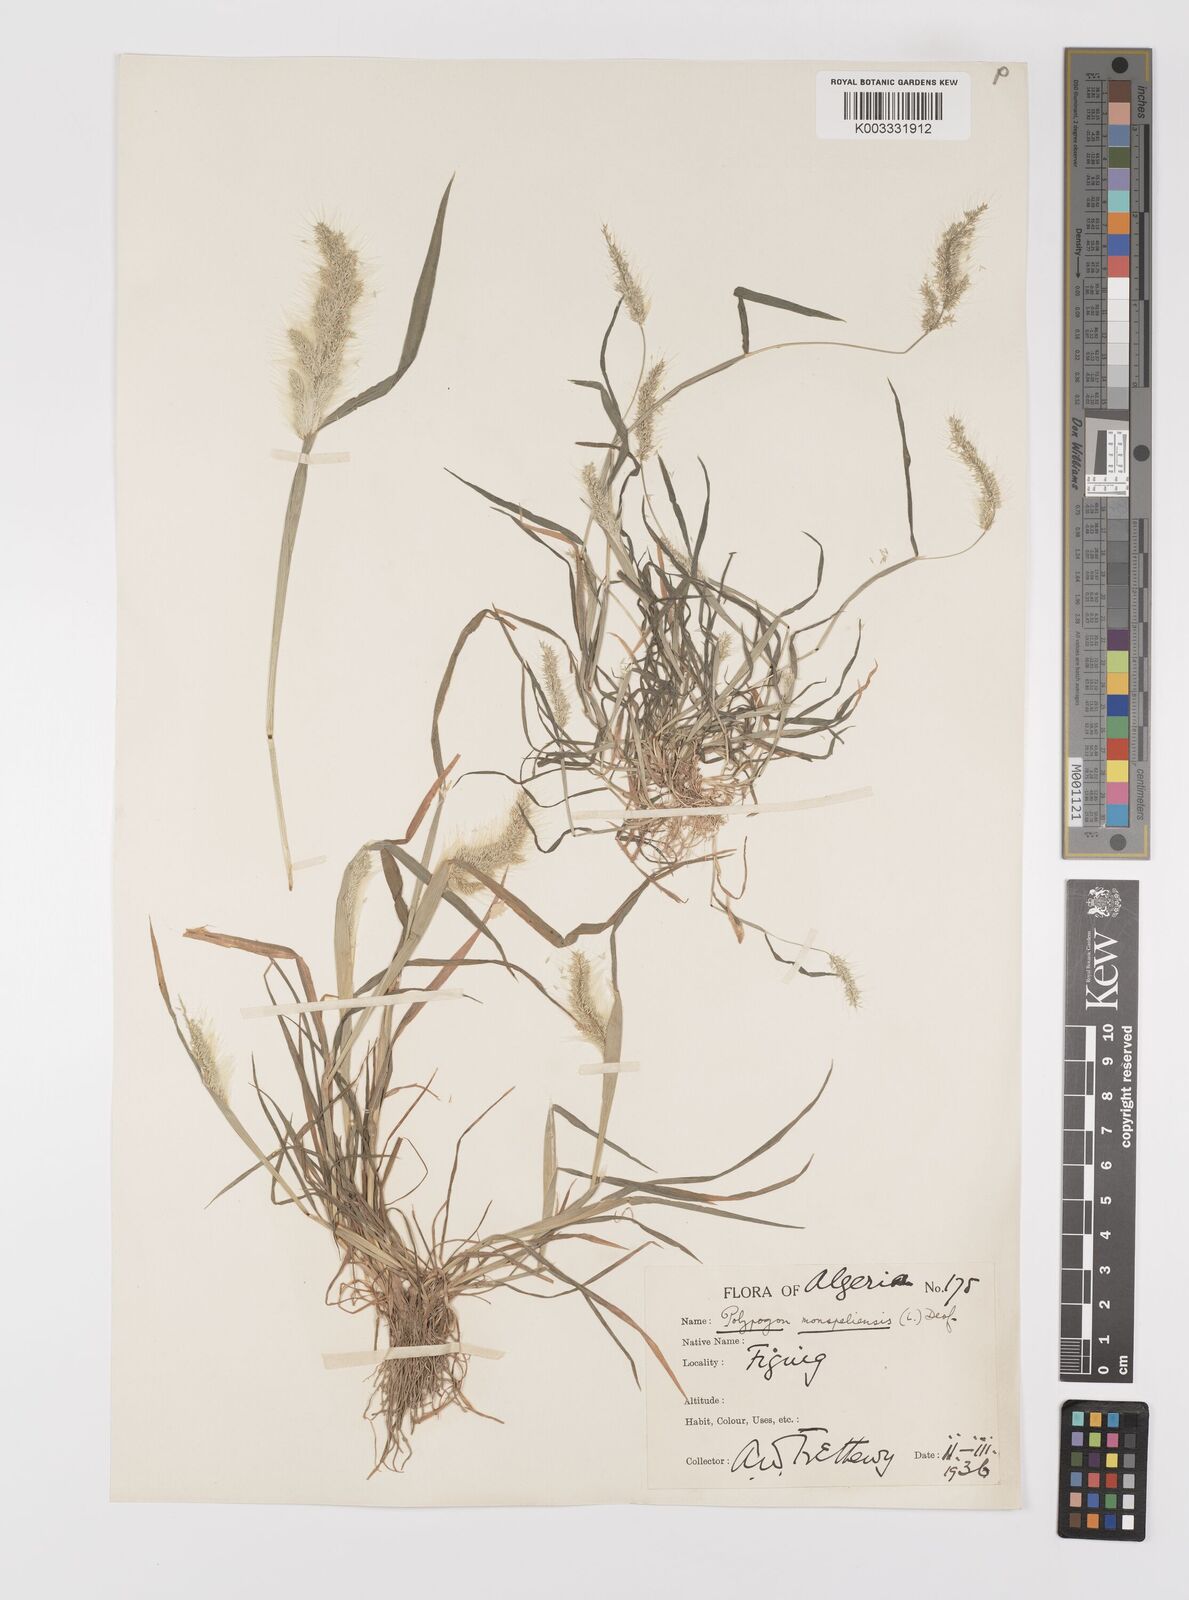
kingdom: Plantae
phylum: Tracheophyta
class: Liliopsida
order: Poales
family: Poaceae
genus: Polypogon
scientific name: Polypogon monspeliensis
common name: Annual rabbitsfoot grass
